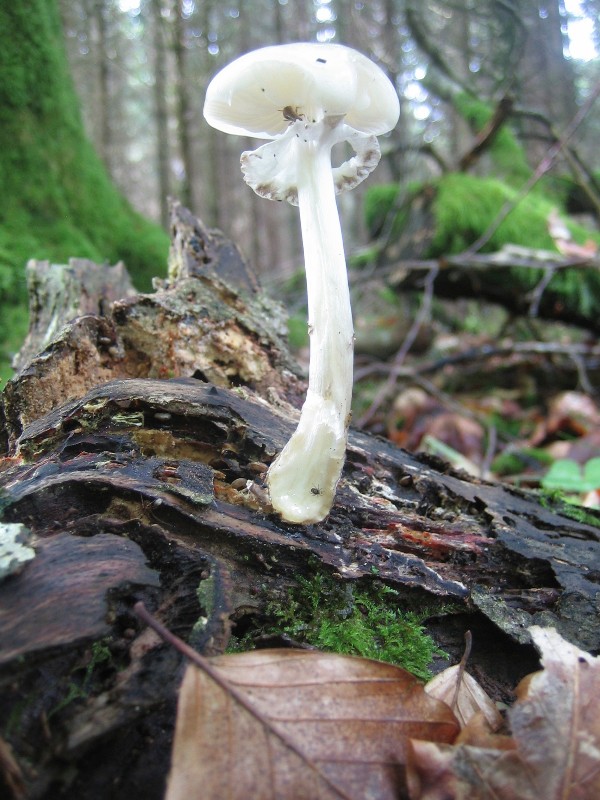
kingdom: Fungi
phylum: Basidiomycota
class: Agaricomycetes
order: Agaricales
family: Physalacriaceae
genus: Mucidula
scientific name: Mucidula mucida
